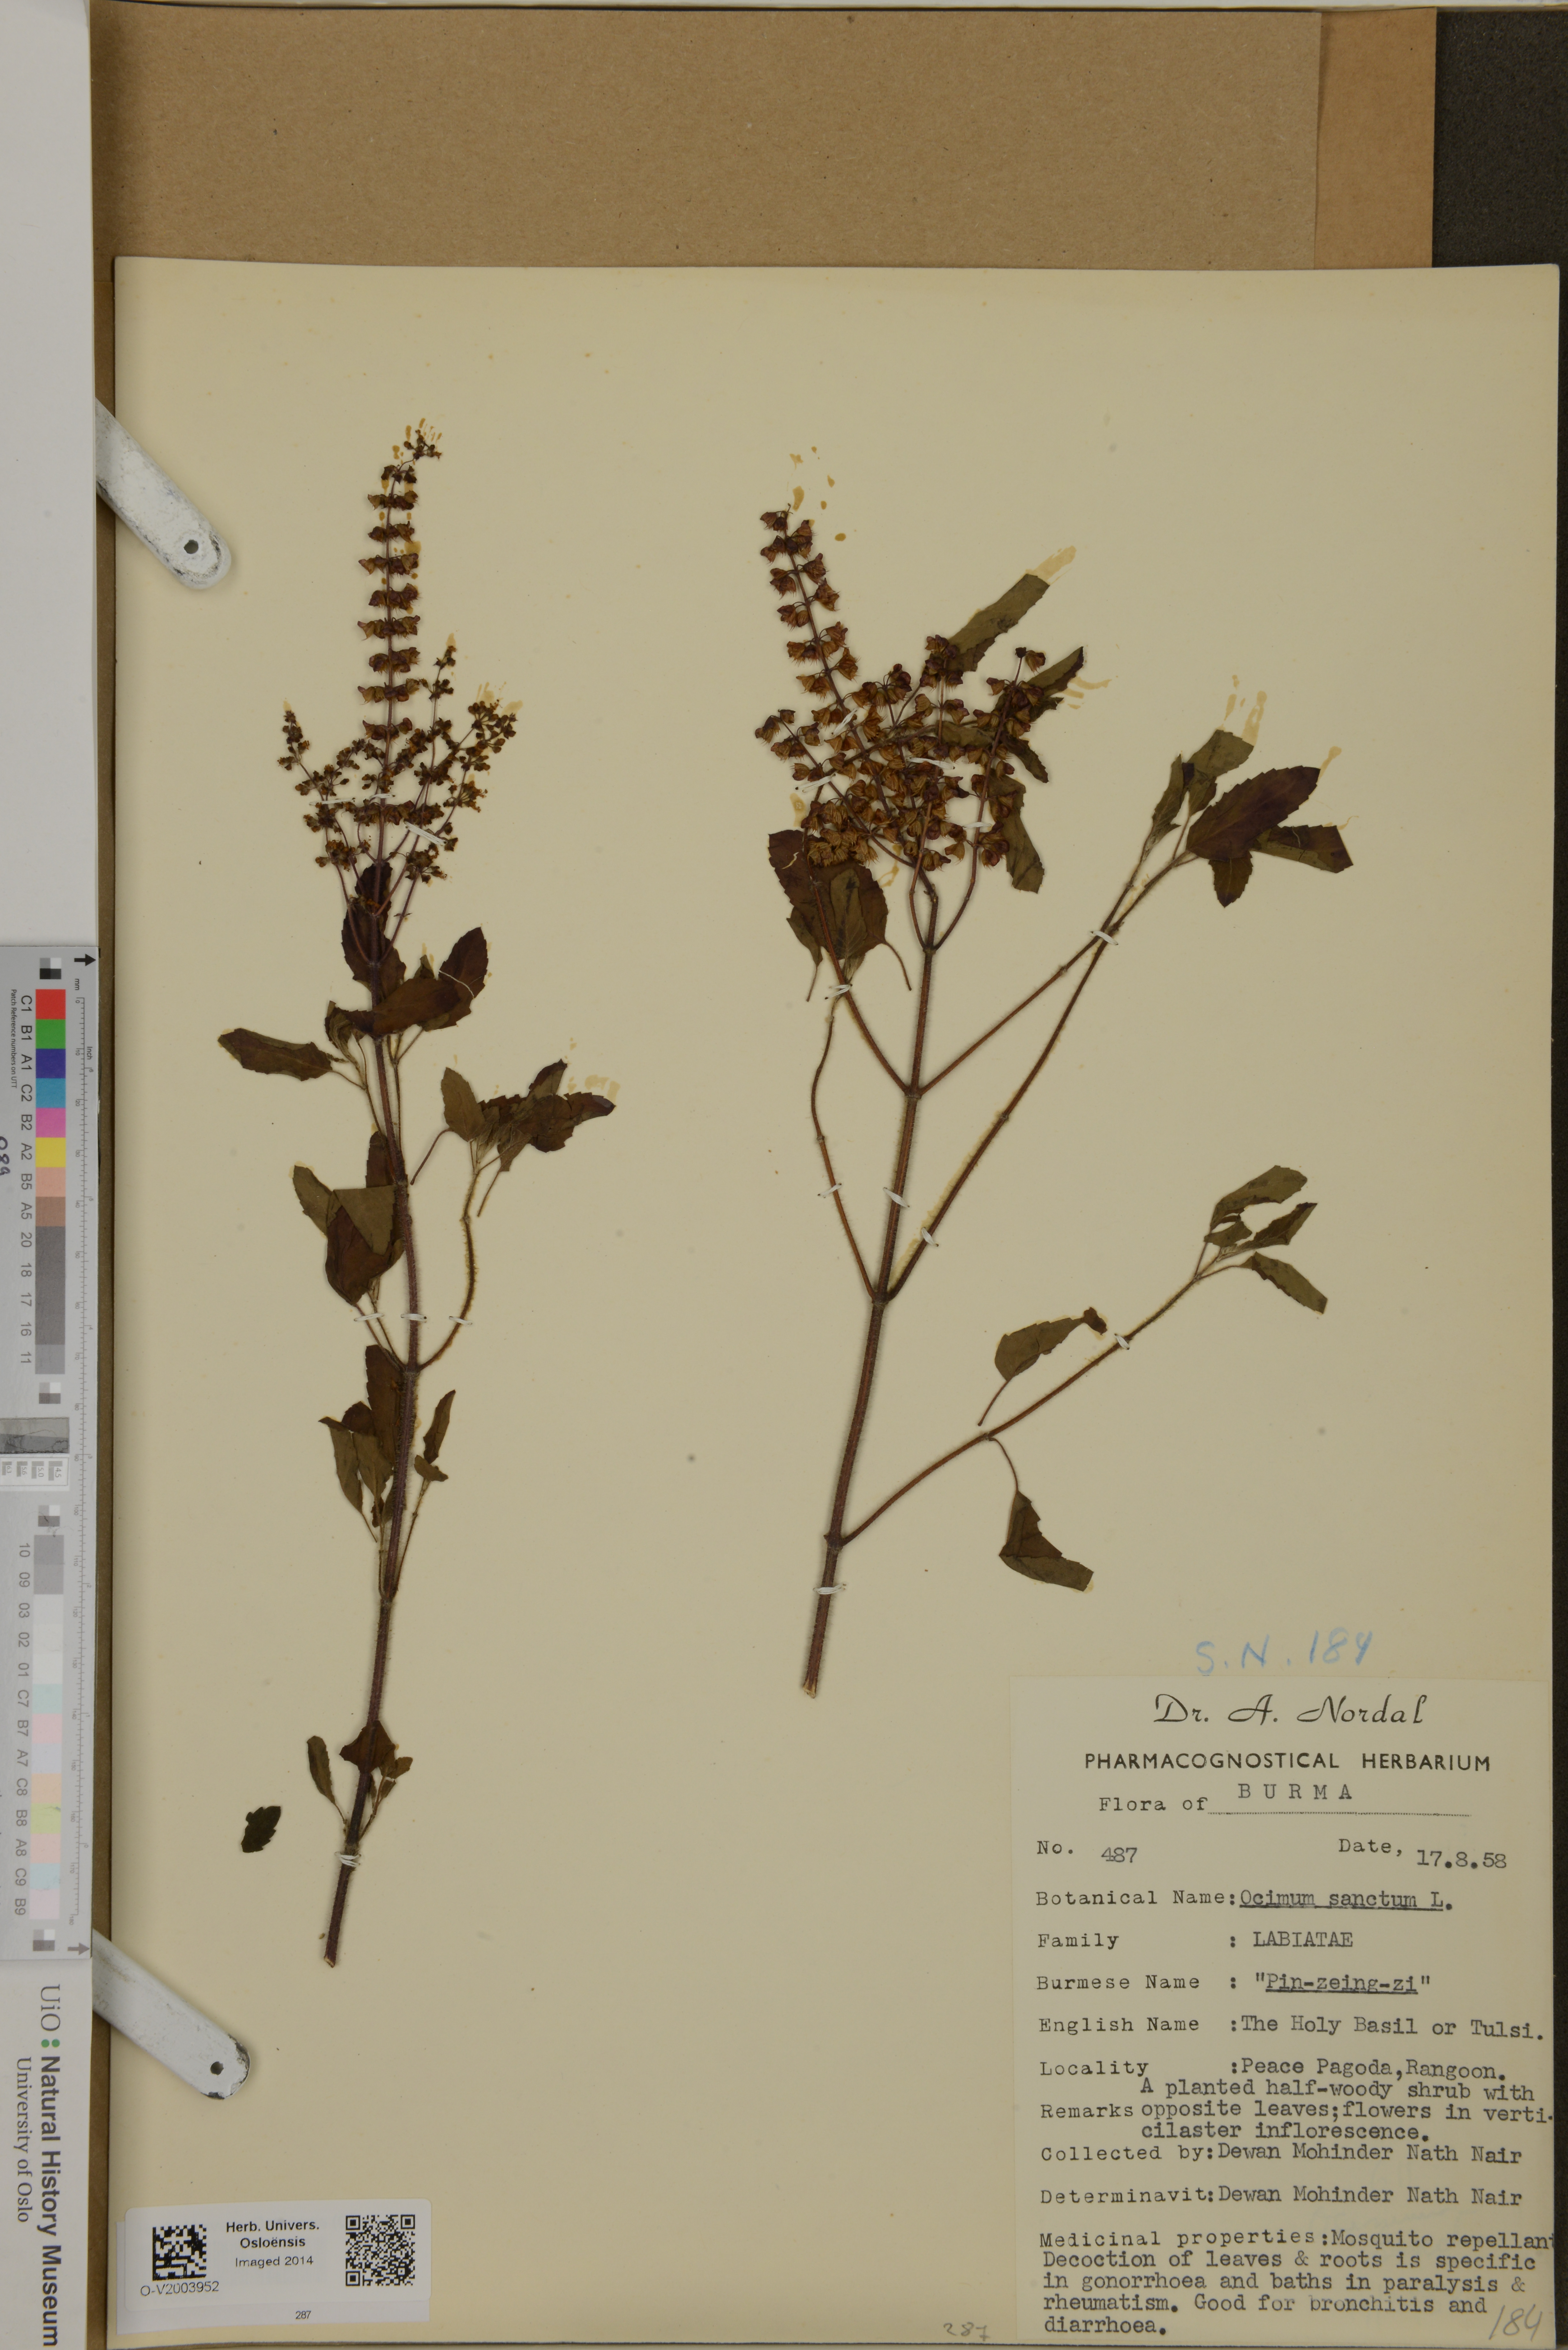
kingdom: Plantae
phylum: Tracheophyta
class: Magnoliopsida
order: Lamiales
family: Lamiaceae
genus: Ocimum
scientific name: Ocimum tenuiflorum
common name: Sacred basil
